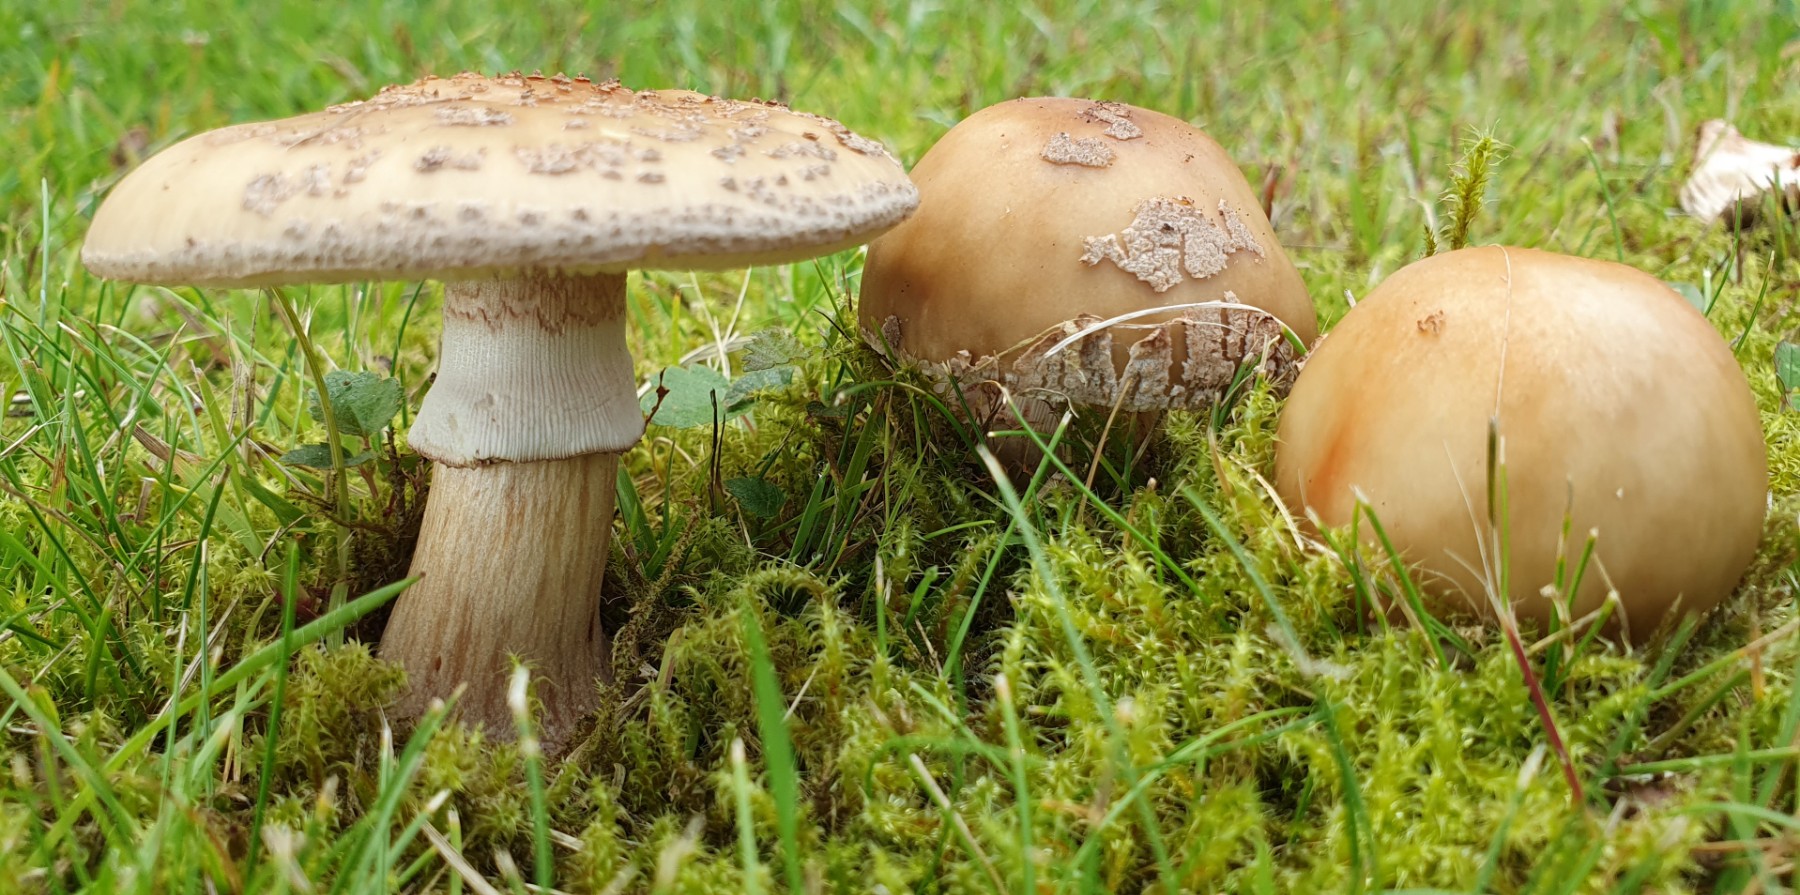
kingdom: Fungi
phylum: Basidiomycota
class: Agaricomycetes
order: Agaricales
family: Amanitaceae
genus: Amanita
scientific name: Amanita rubescens
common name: rødmende fluesvamp
